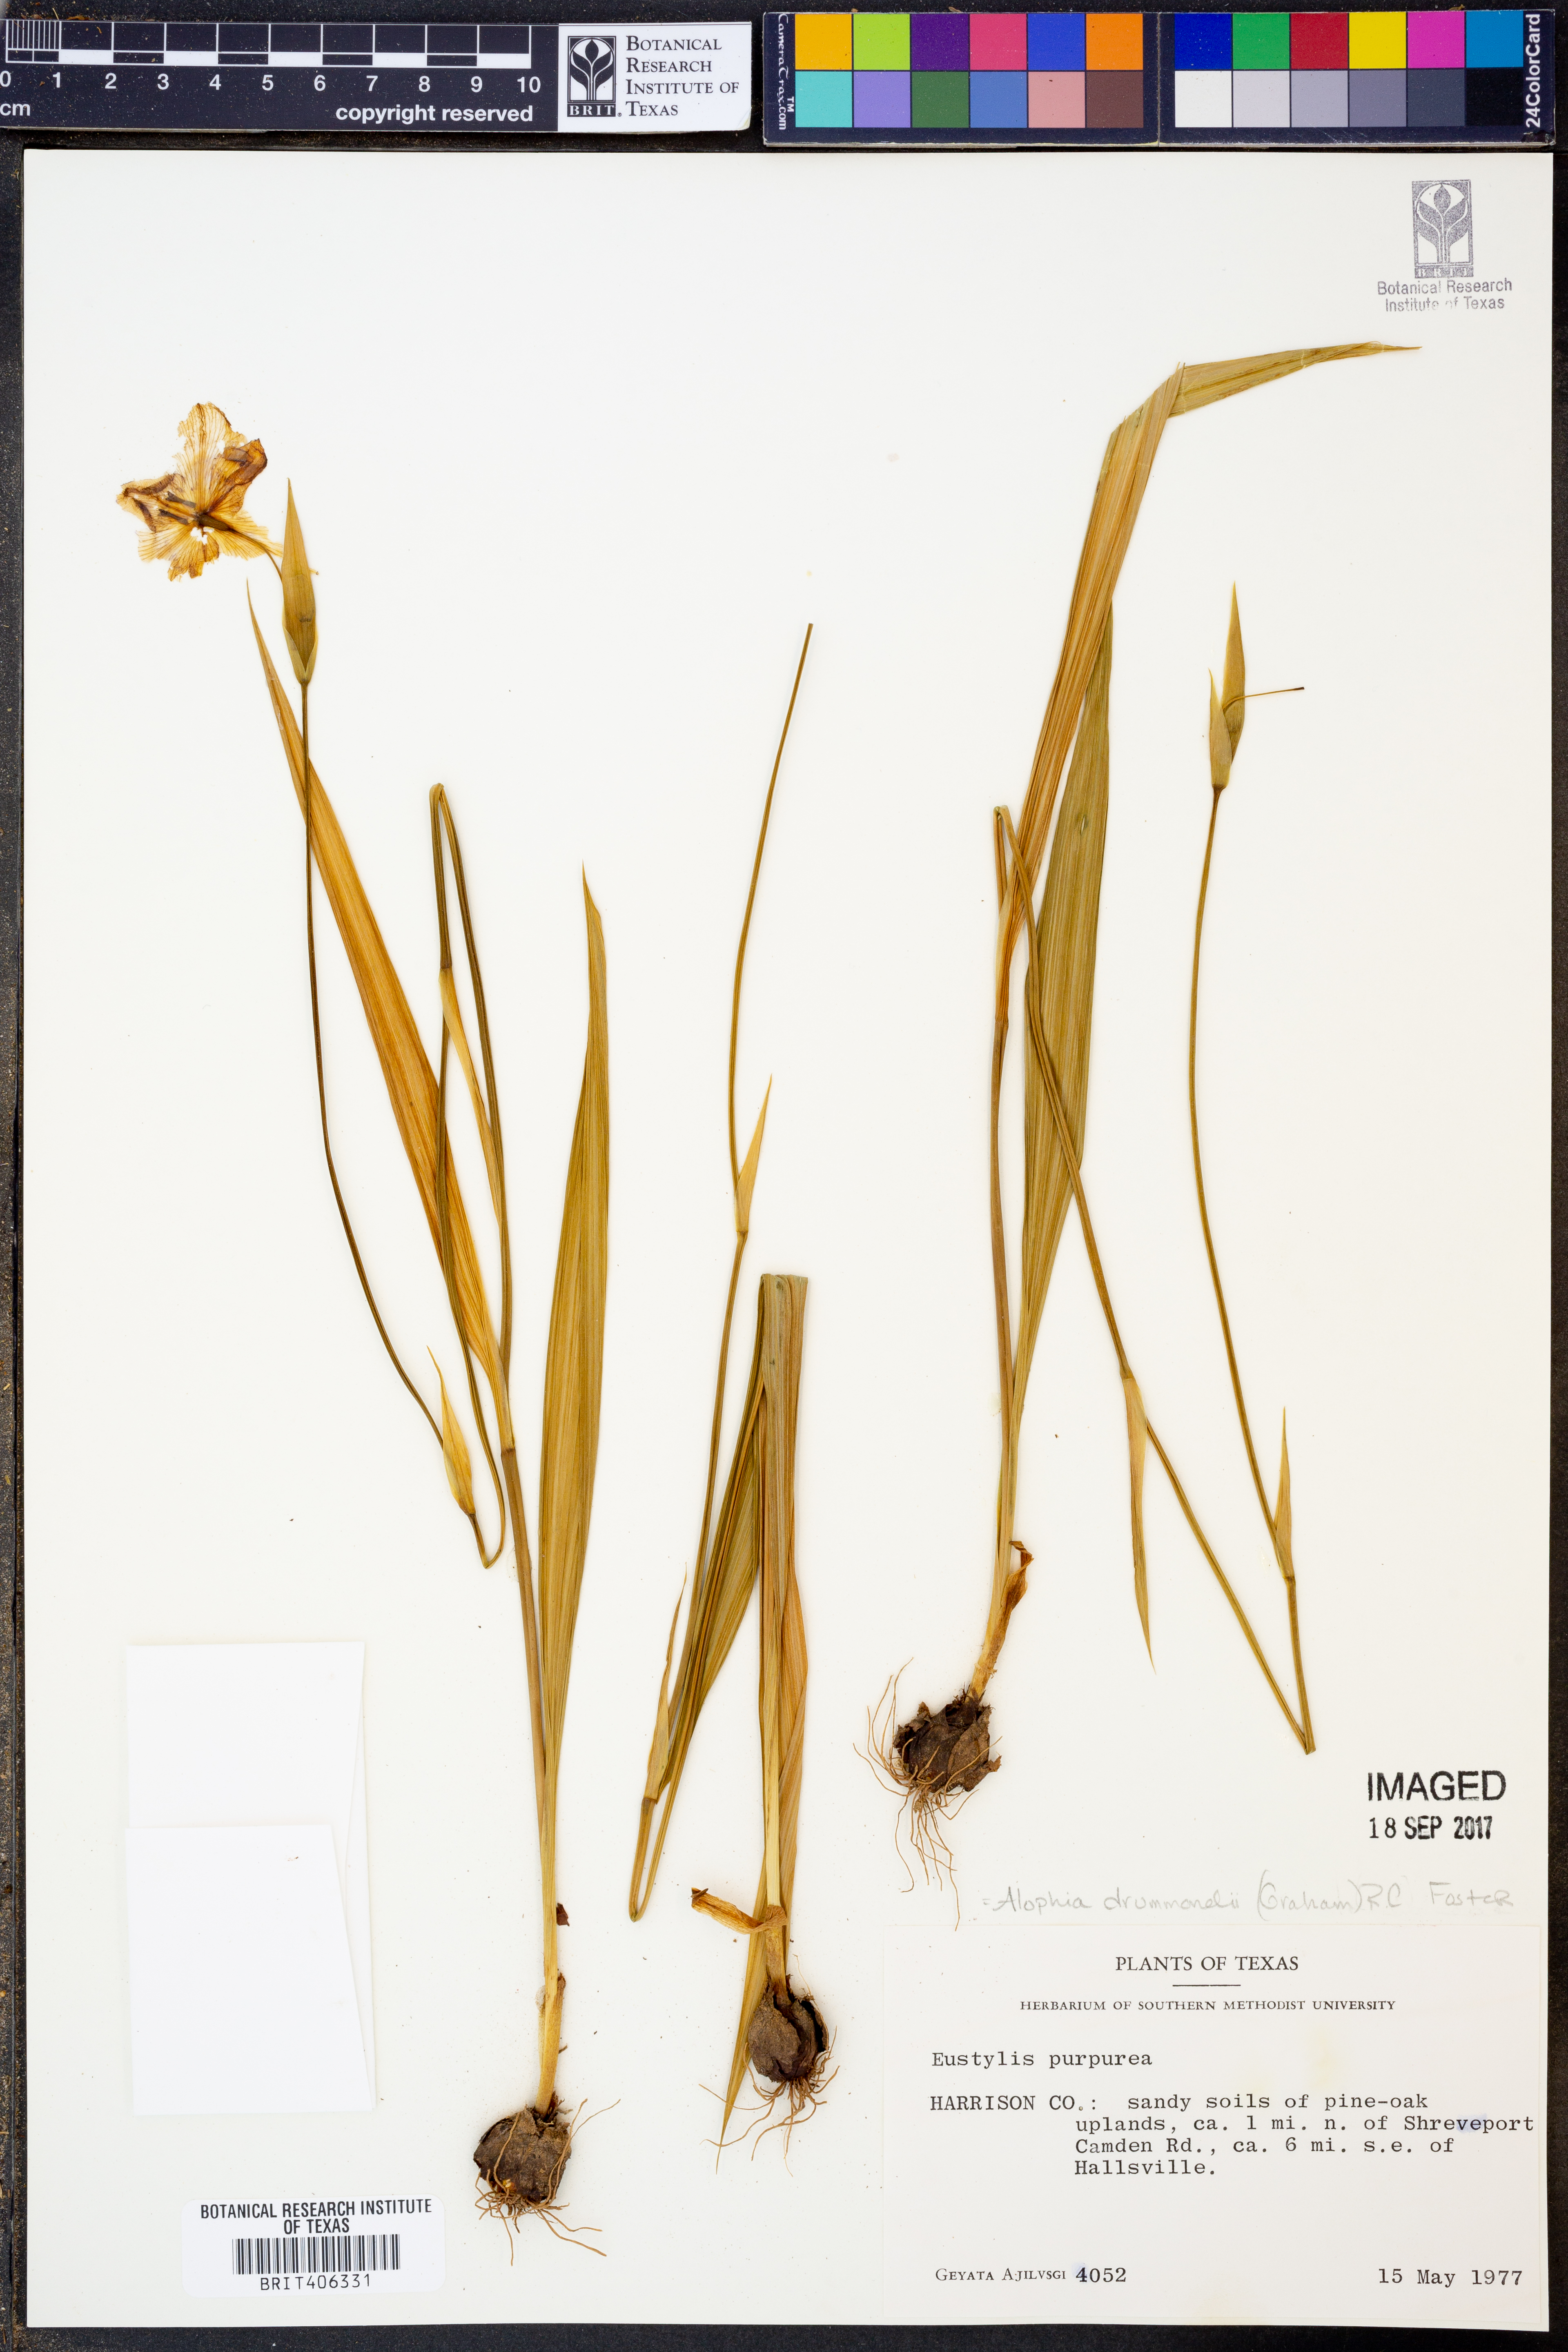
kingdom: Plantae
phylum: Tracheophyta
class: Liliopsida
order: Asparagales
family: Iridaceae
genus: Alophia
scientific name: Alophia drummondii
